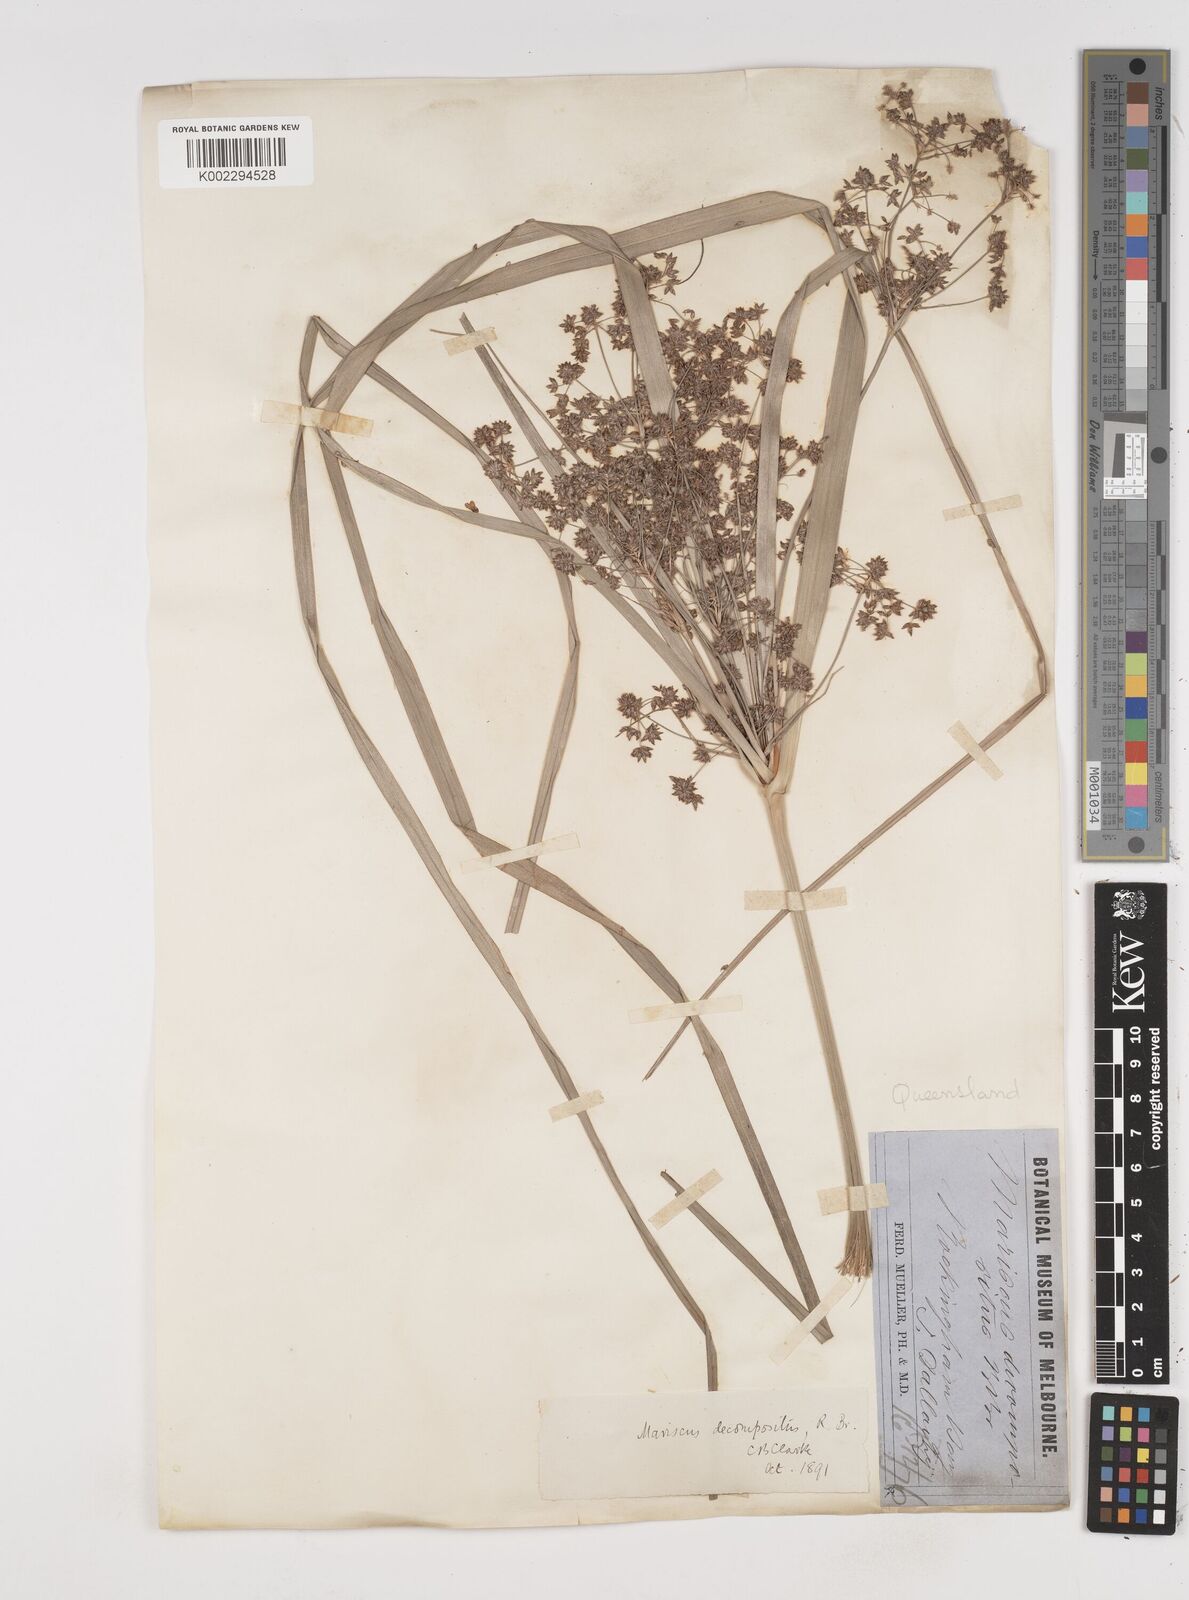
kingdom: Plantae
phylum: Tracheophyta
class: Liliopsida
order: Poales
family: Cyperaceae
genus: Cyperus
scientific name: Cyperus decompositus
